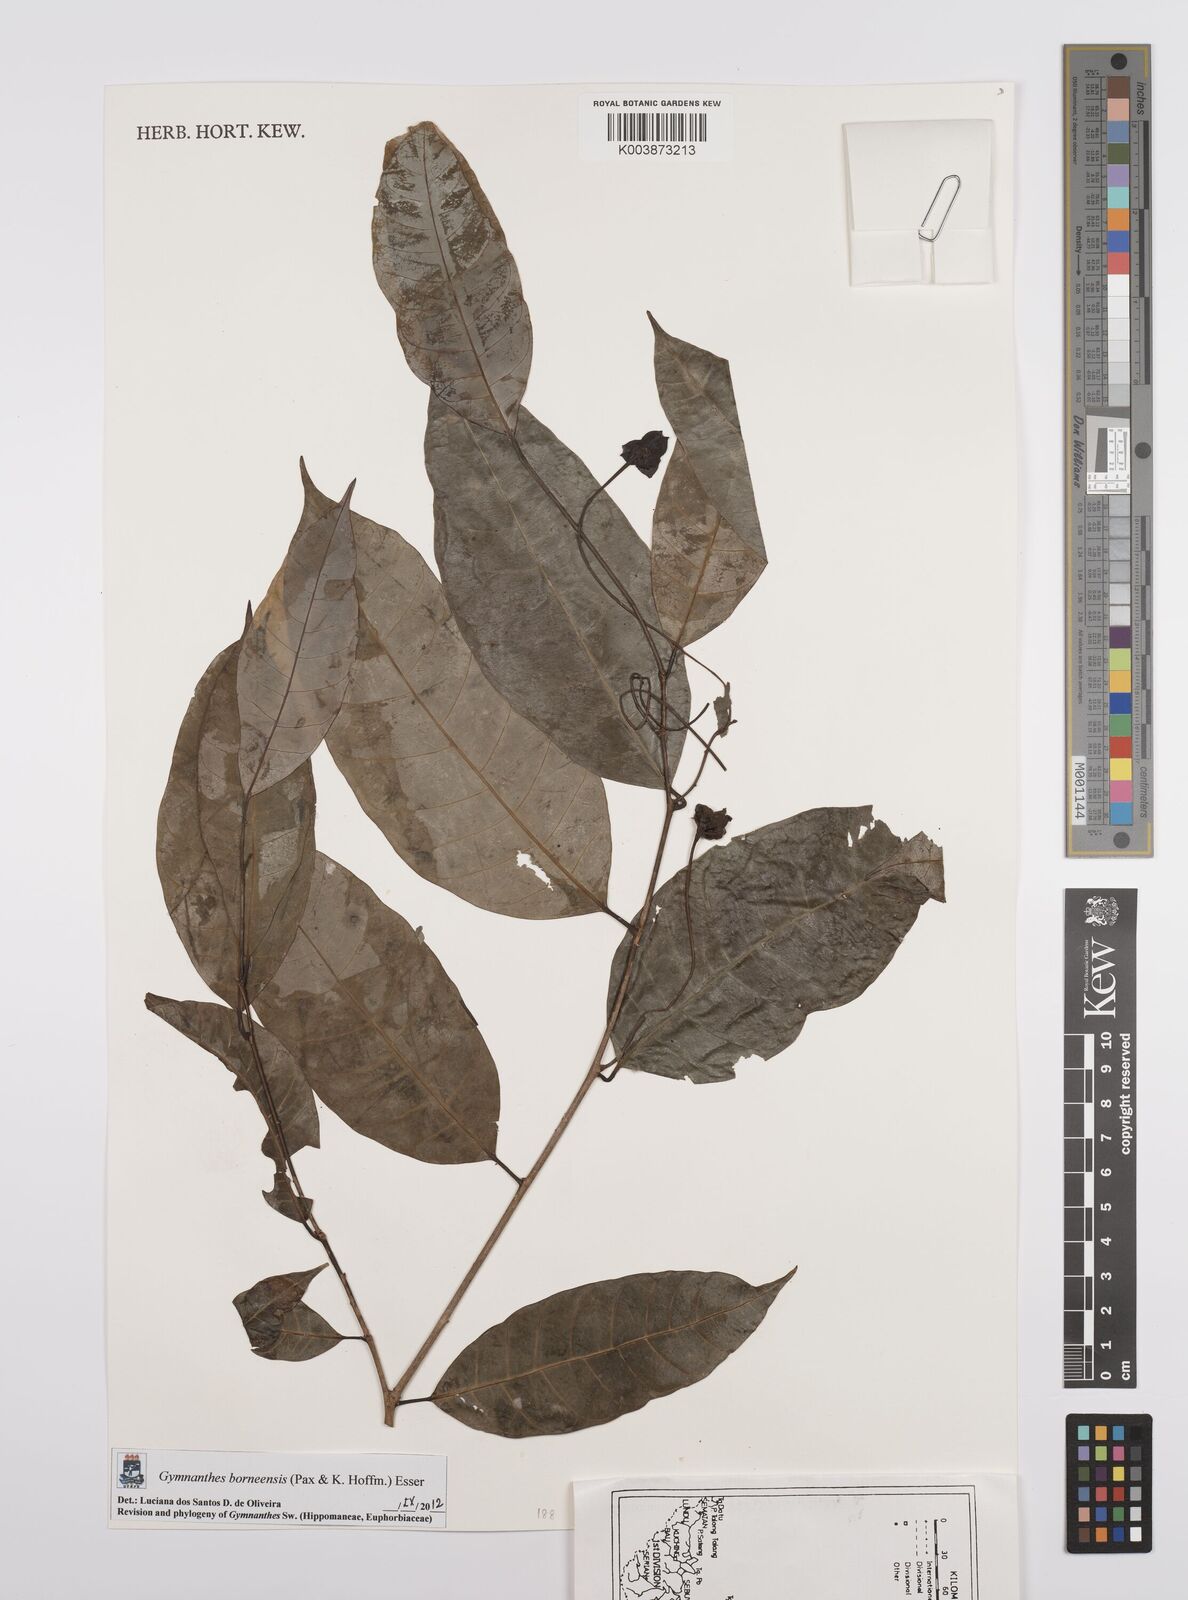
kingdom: Plantae
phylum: Tracheophyta
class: Magnoliopsida
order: Malpighiales
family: Euphorbiaceae
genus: Gymnanthes
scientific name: Gymnanthes borneensis
